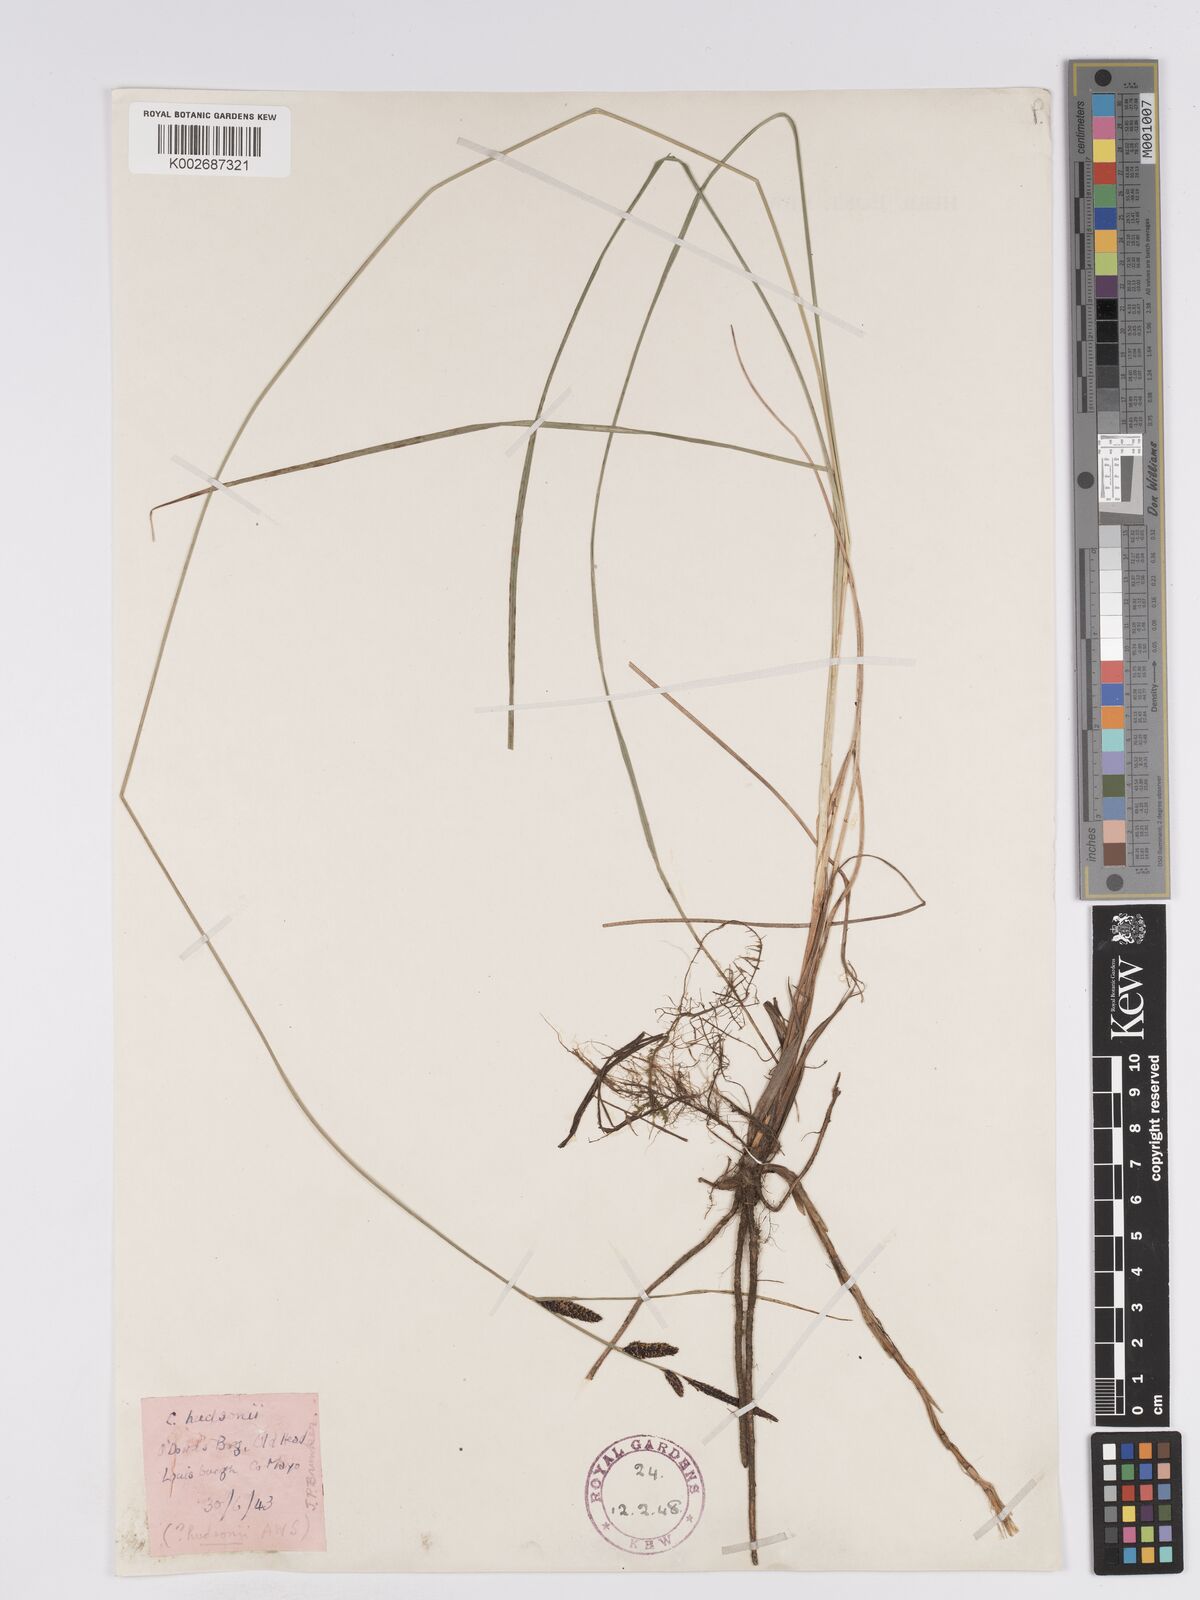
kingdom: Plantae
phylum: Tracheophyta
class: Liliopsida
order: Poales
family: Cyperaceae
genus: Carex
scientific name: Carex nigra
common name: Common sedge
